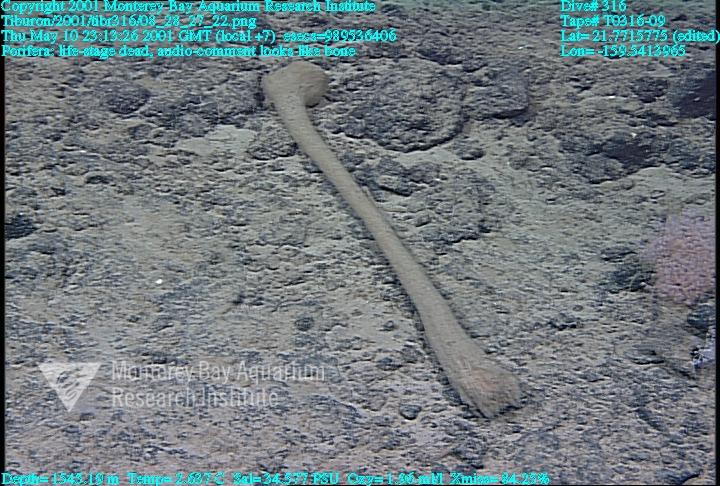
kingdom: Animalia
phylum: Porifera
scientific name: Porifera
